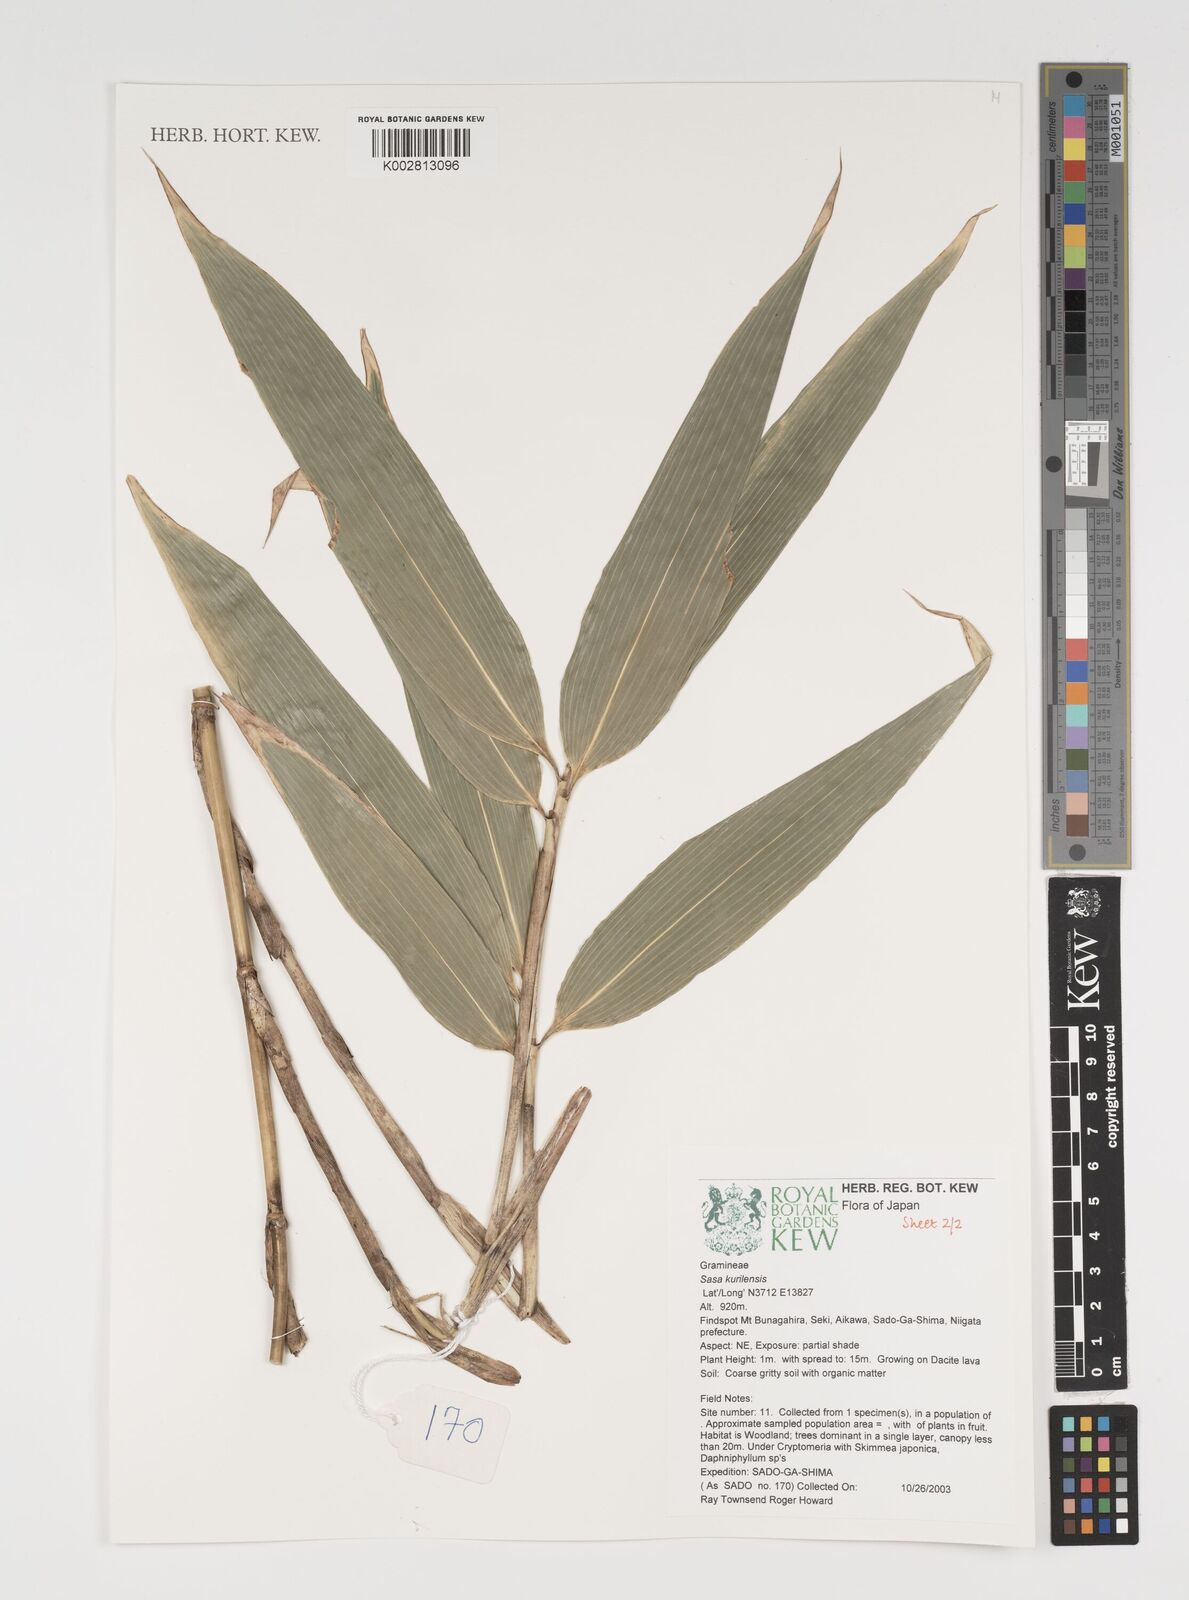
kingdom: Plantae
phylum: Tracheophyta
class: Liliopsida
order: Poales
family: Poaceae
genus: Sasa
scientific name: Sasa kurilensis
